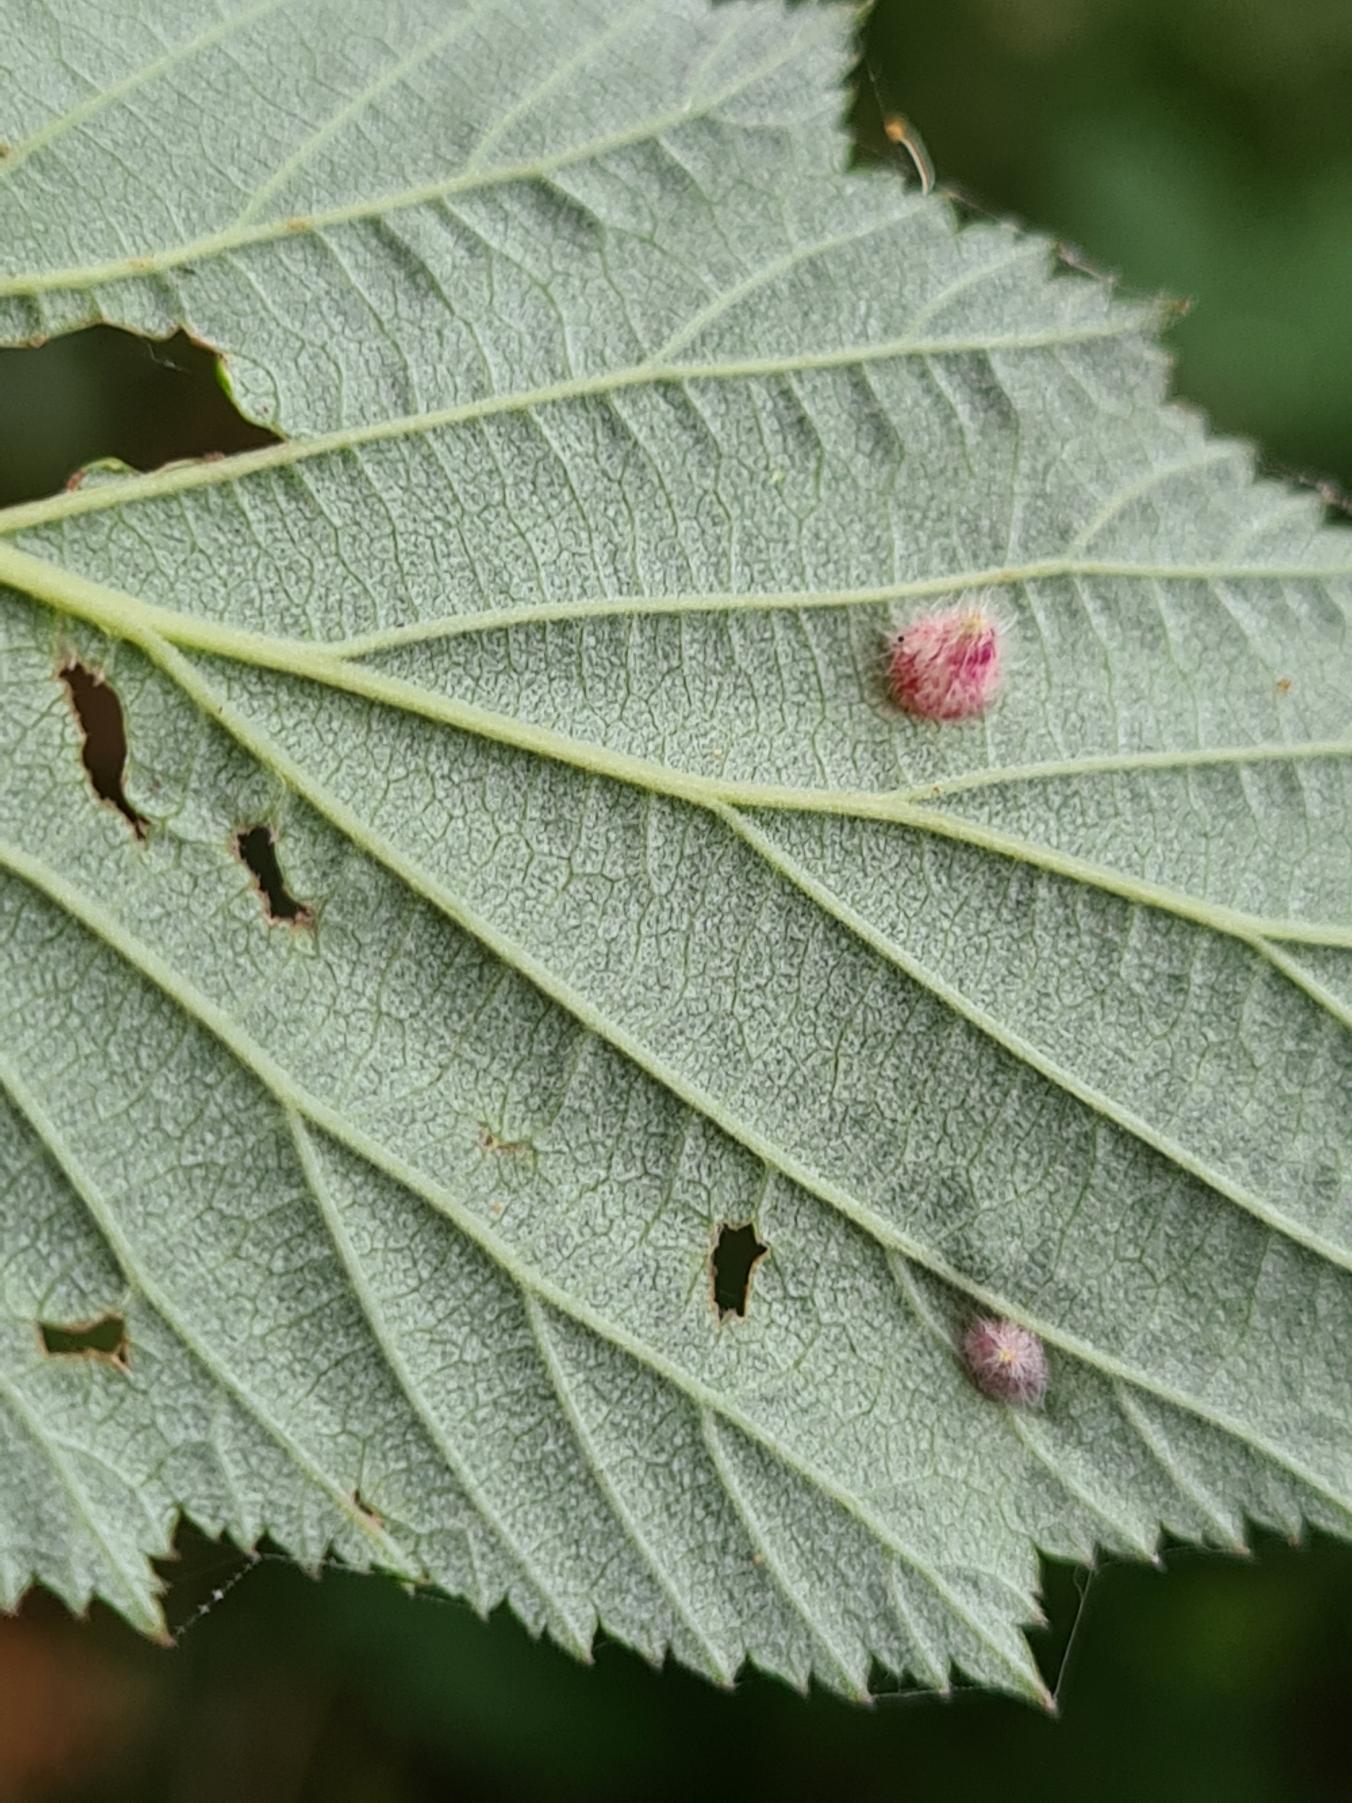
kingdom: Animalia
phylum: Arthropoda
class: Insecta
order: Diptera
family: Cecidomyiidae
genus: Dasineura
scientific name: Dasineura ulmaria
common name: Mjødurtgalmyg
